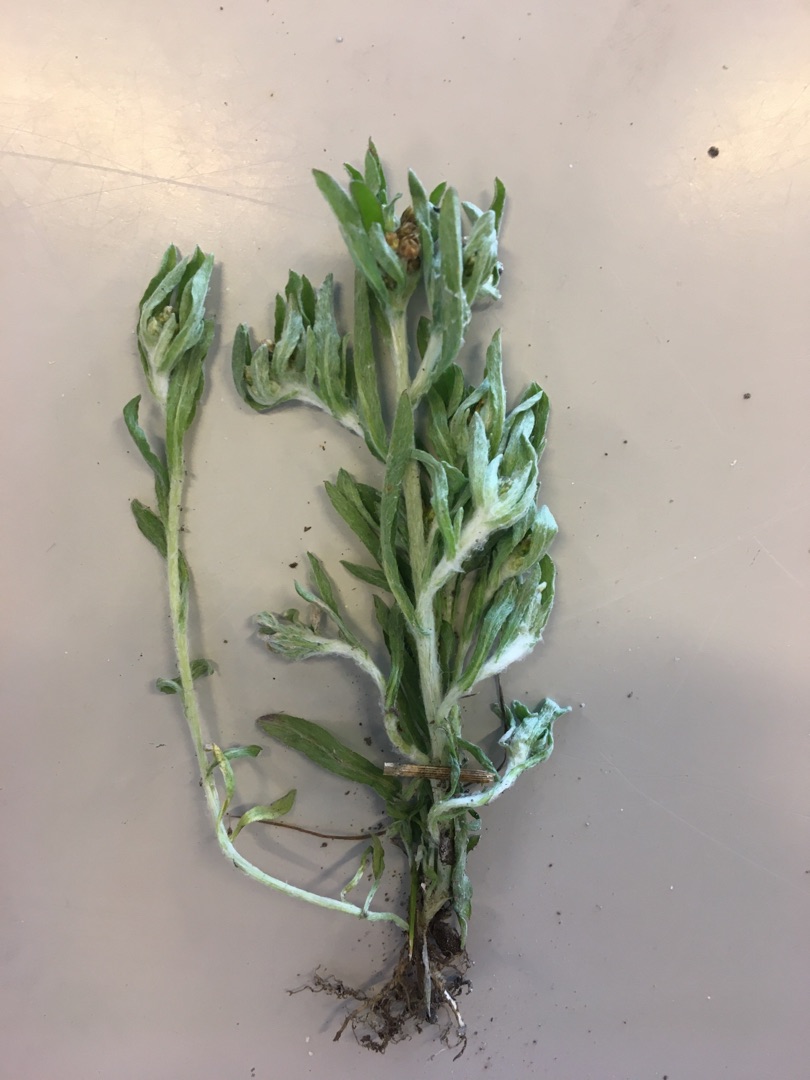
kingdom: Plantae
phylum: Tracheophyta
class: Magnoliopsida
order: Asterales
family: Asteraceae
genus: Gnaphalium
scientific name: Gnaphalium uliginosum
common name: Sump-evighedsblomst
